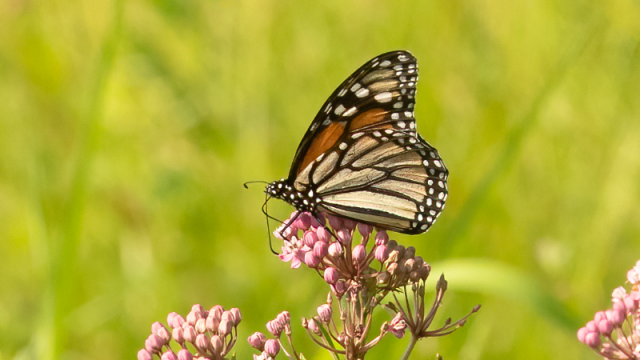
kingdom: Animalia
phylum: Arthropoda
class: Insecta
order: Lepidoptera
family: Nymphalidae
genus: Danaus
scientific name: Danaus plexippus
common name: Monarch
